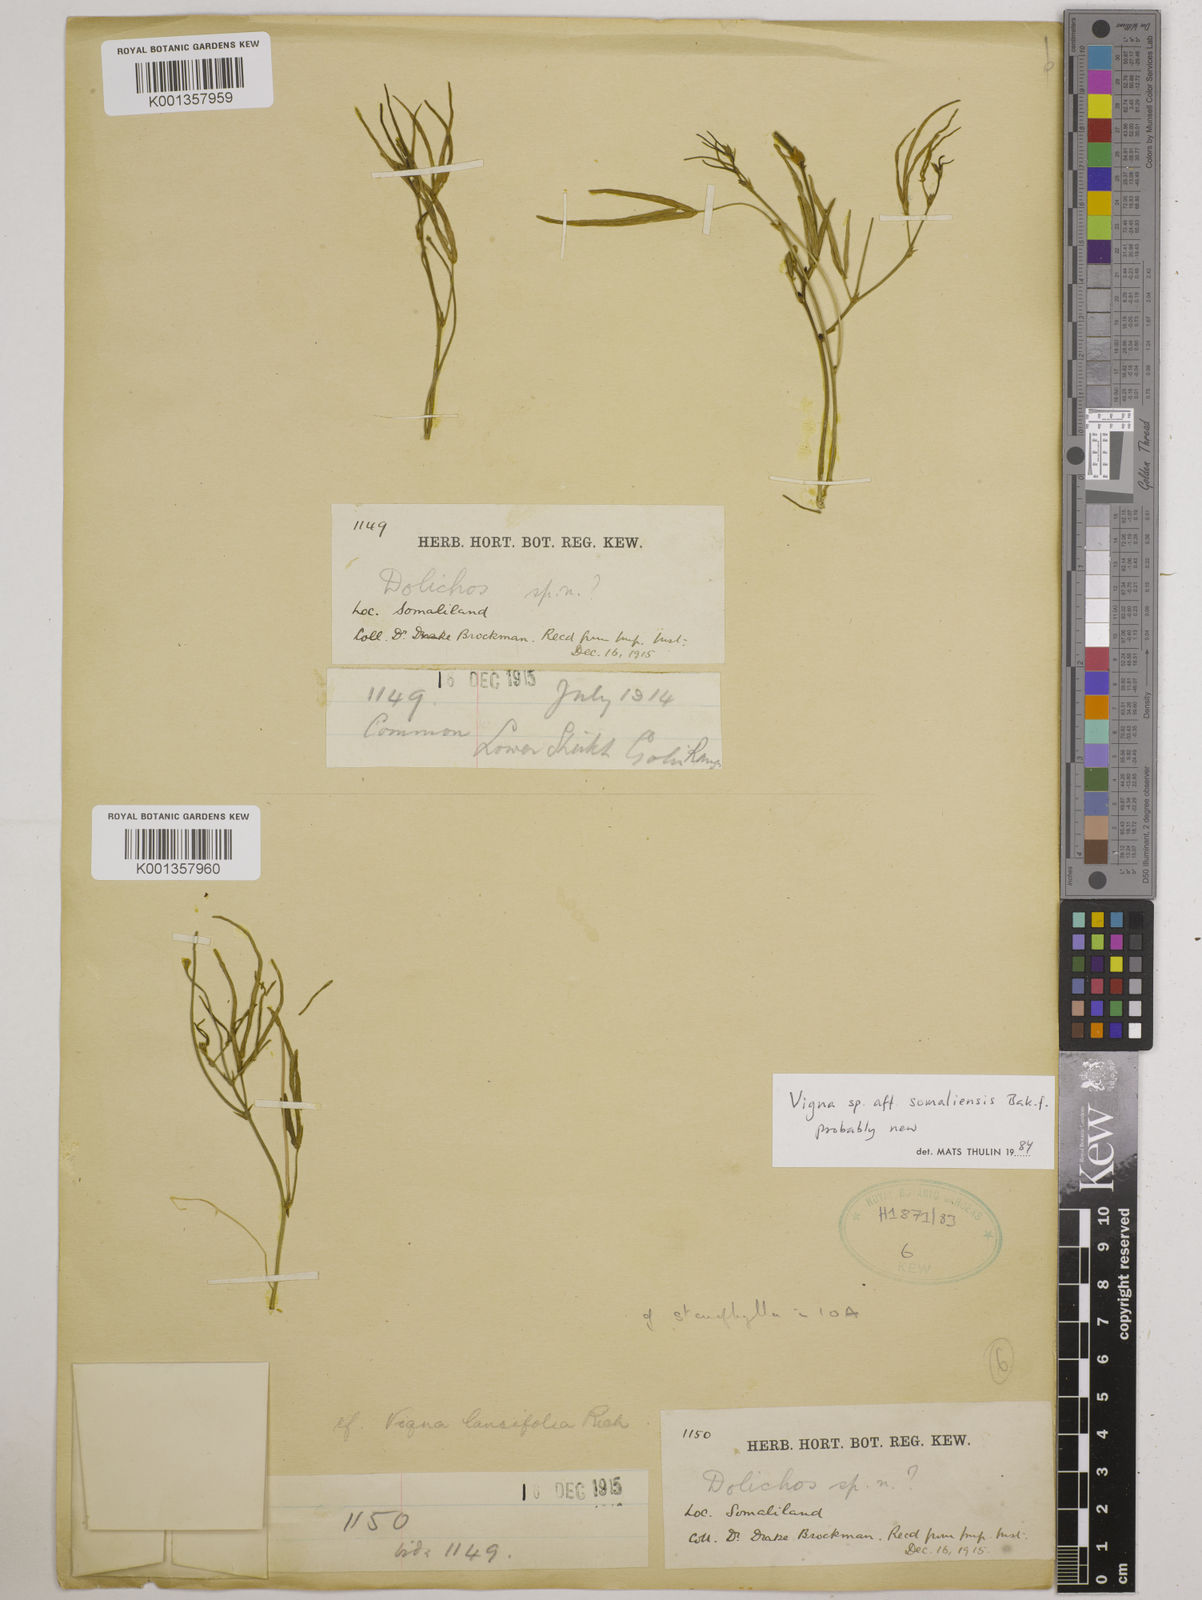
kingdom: Plantae
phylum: Tracheophyta
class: Magnoliopsida
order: Fabales
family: Fabaceae
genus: Vigna
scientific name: Vigna somaliensis
